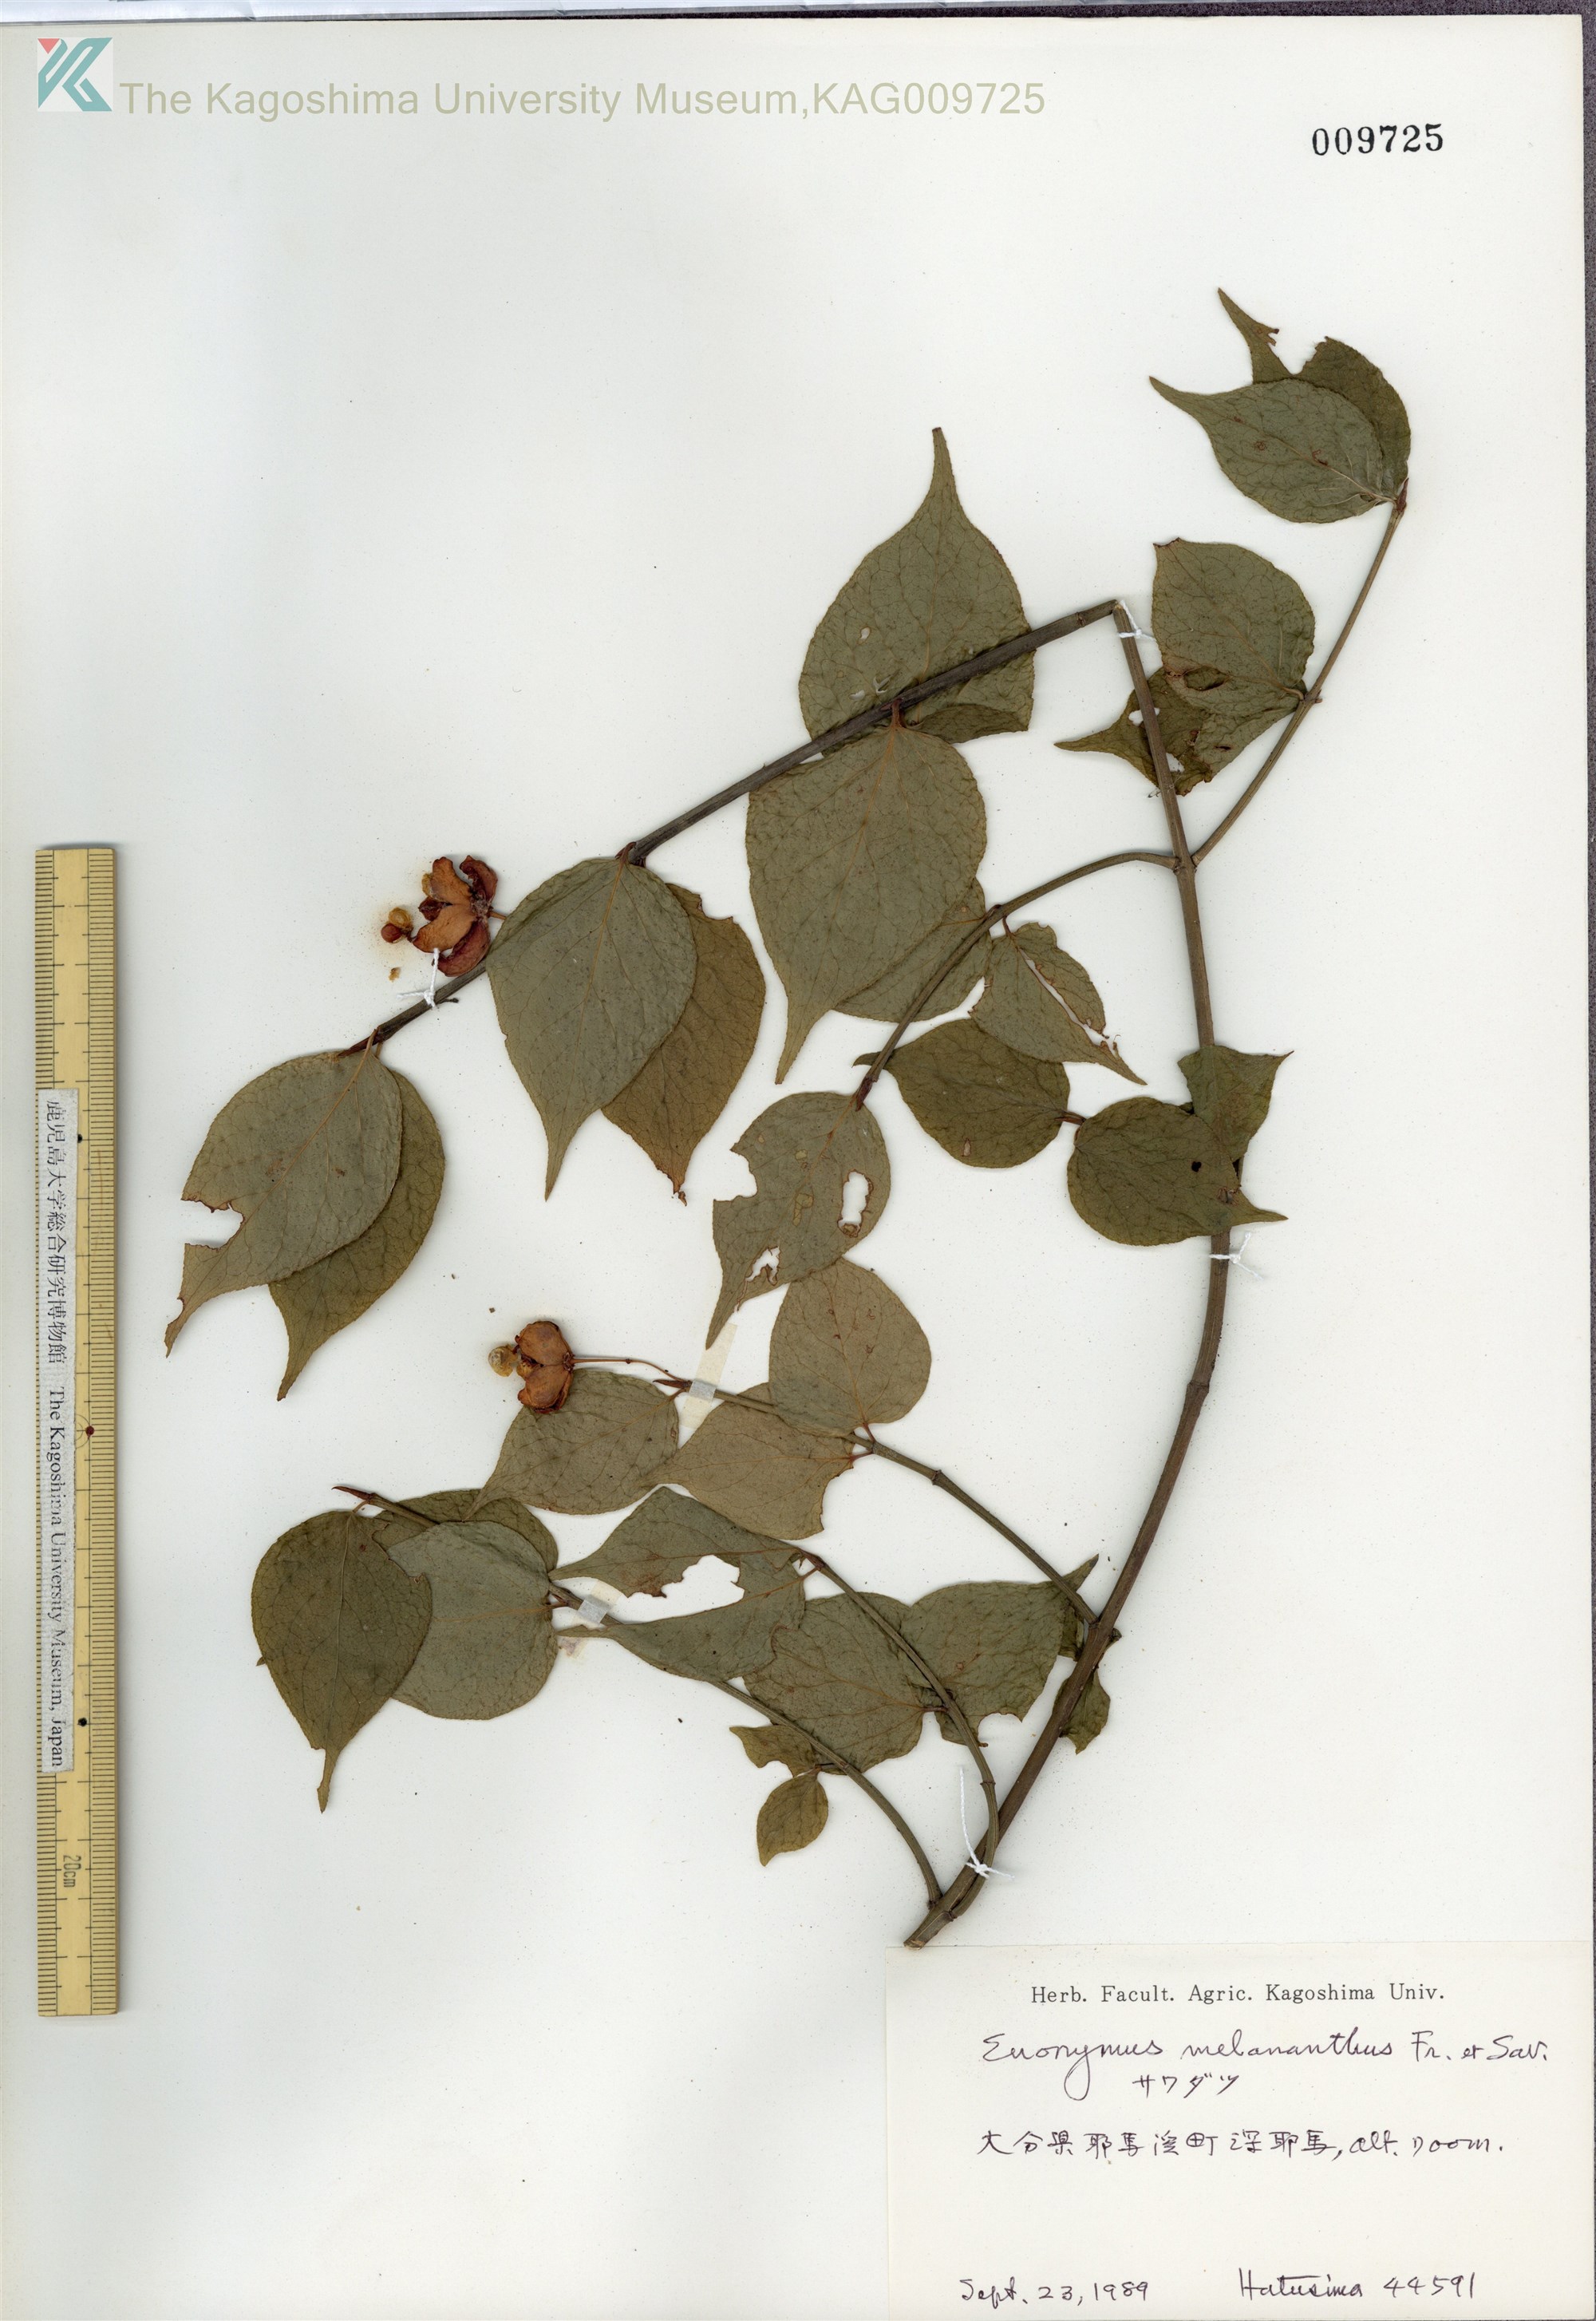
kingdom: Plantae
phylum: Tracheophyta
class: Magnoliopsida
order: Celastrales
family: Celastraceae
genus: Euonymus
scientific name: Euonymus melananthus
